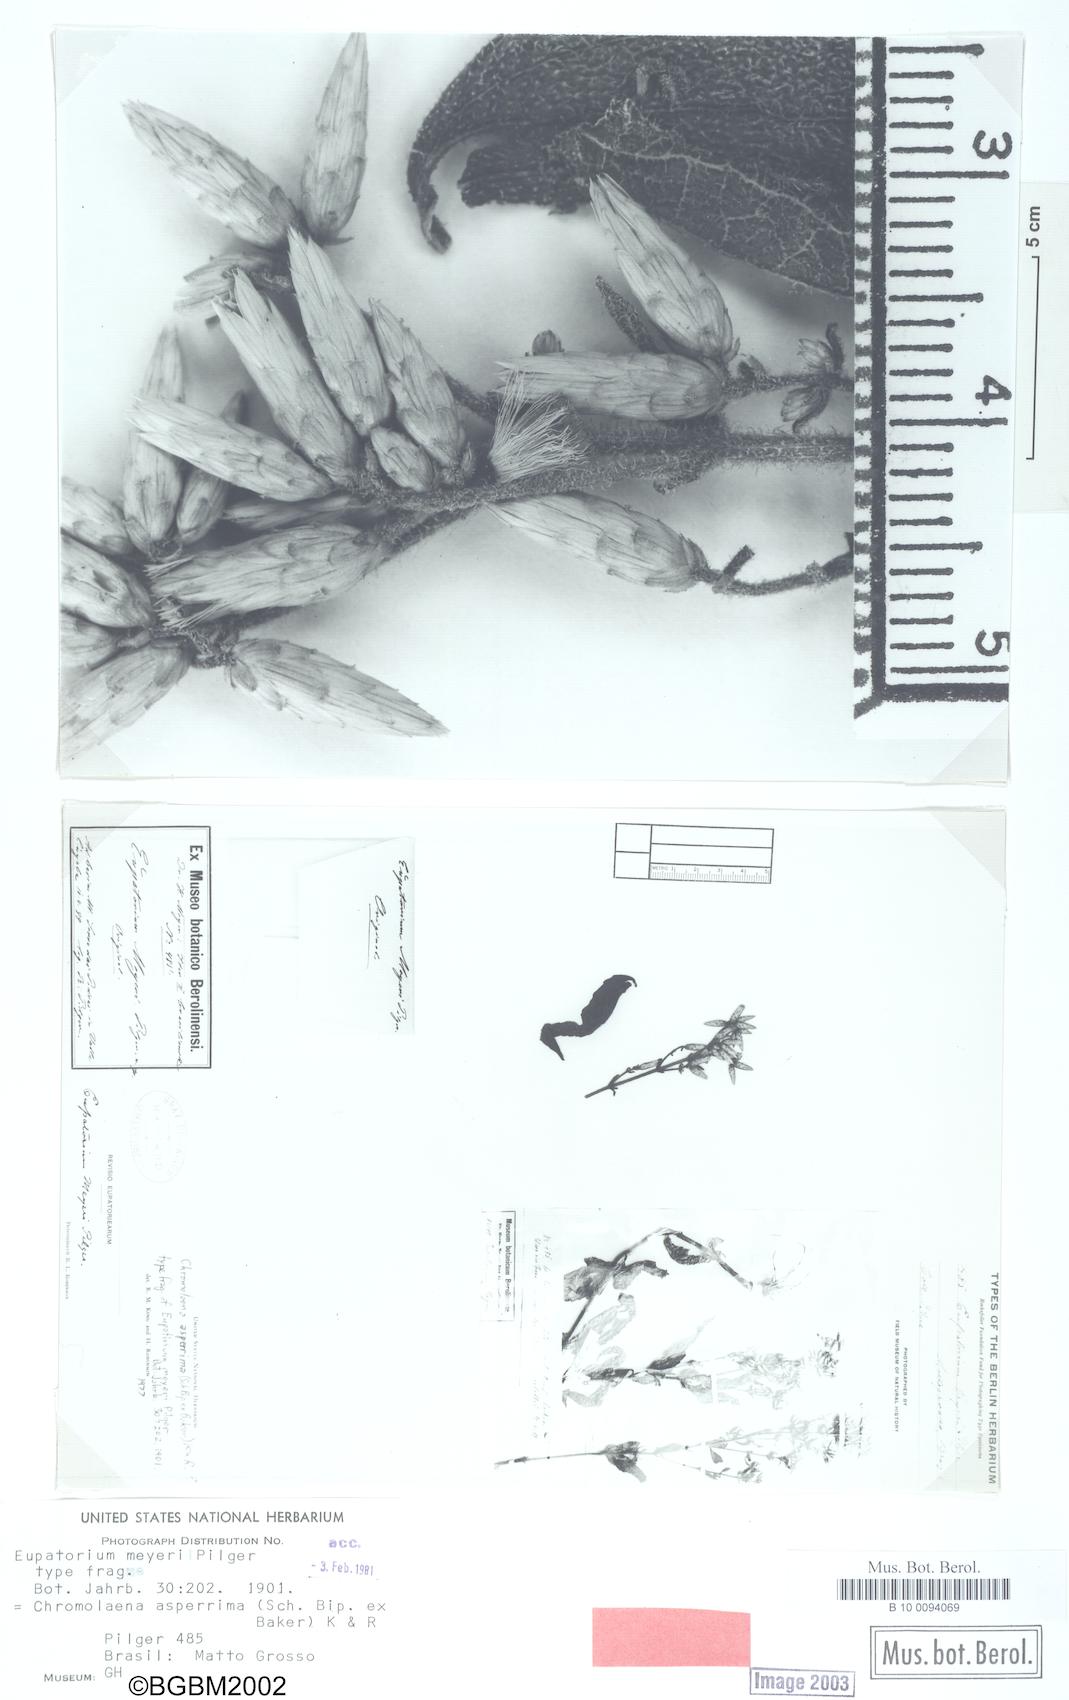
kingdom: Plantae
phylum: Tracheophyta
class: Magnoliopsida
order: Asterales
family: Asteraceae
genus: Chromolaena
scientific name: Chromolaena asperrima
